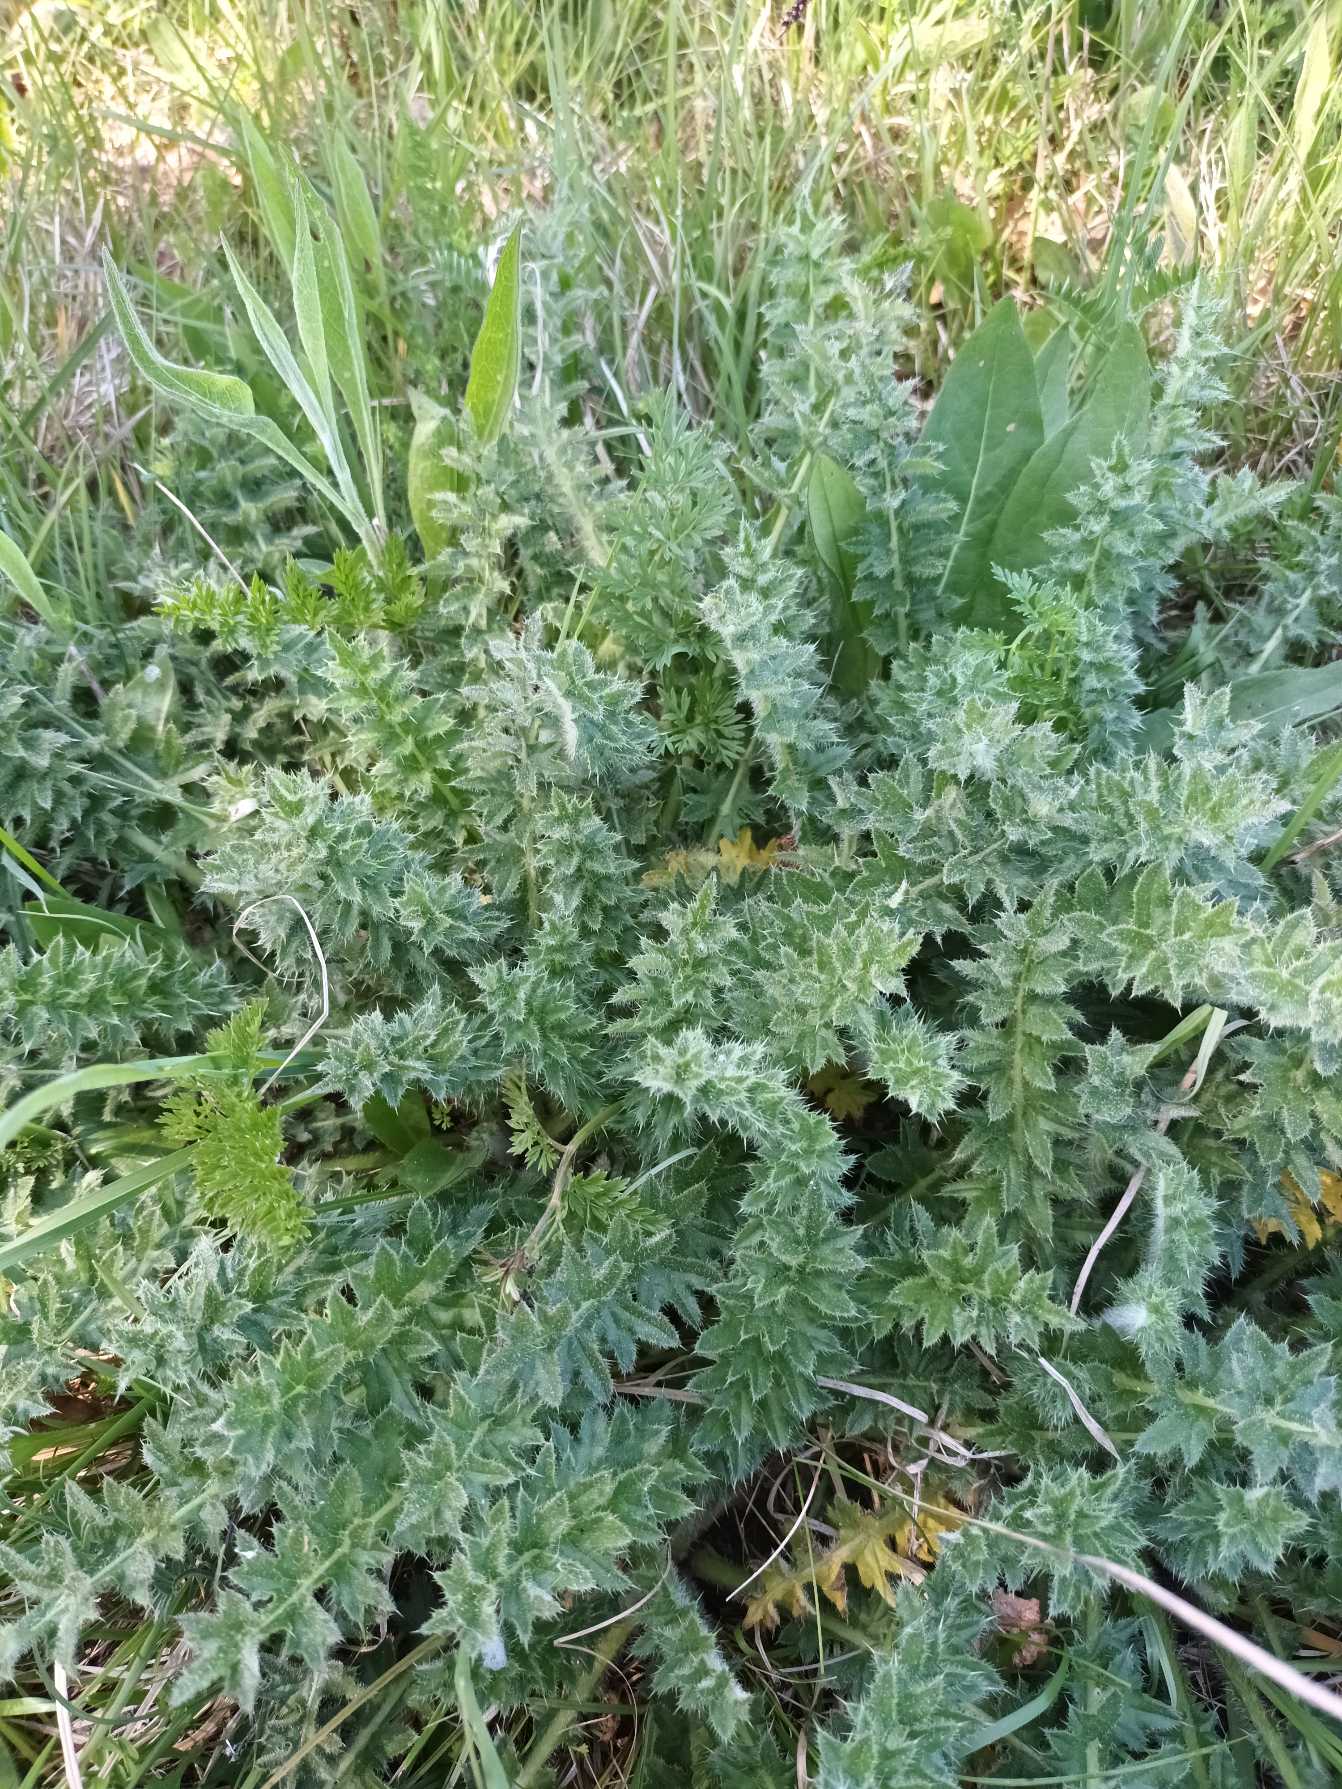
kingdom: Plantae
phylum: Tracheophyta
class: Magnoliopsida
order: Asterales
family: Asteraceae
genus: Cirsium
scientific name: Cirsium acaule
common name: Lav tidsel
